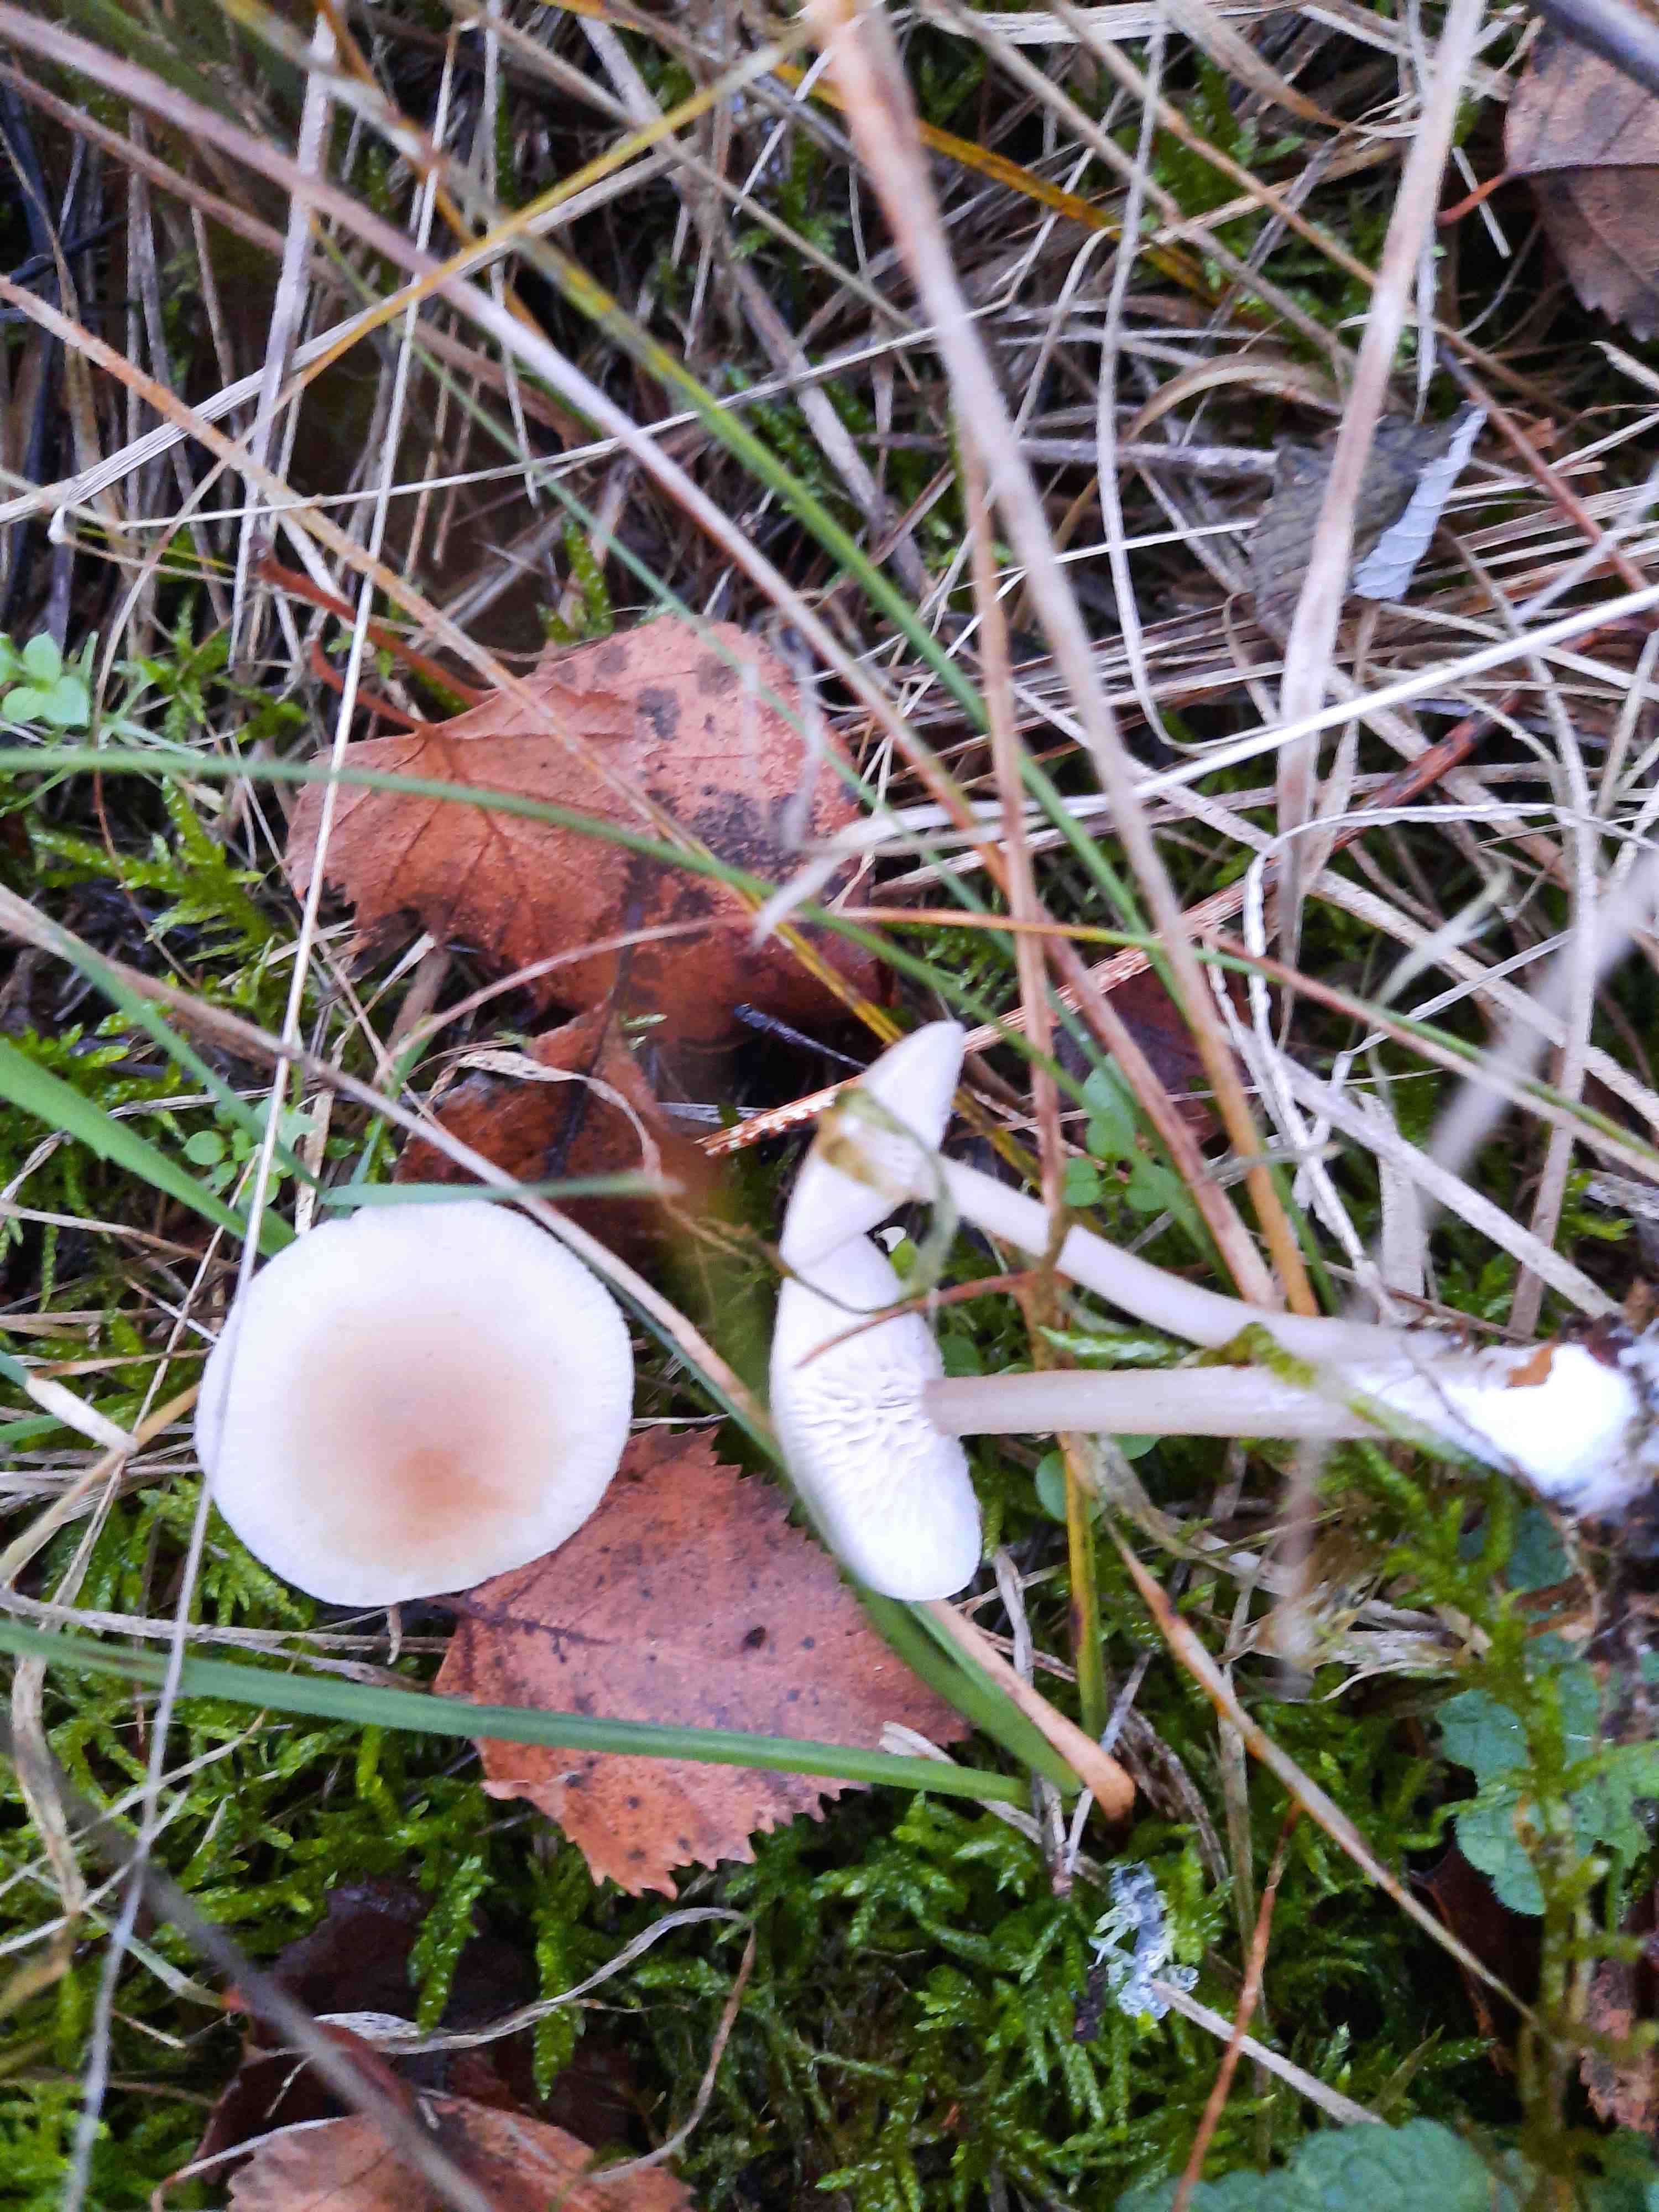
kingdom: Fungi
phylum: Basidiomycota
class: Agaricomycetes
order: Agaricales
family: Tricholomataceae
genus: Clitocybe
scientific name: Clitocybe fragrans
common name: vellugtende tragthat
